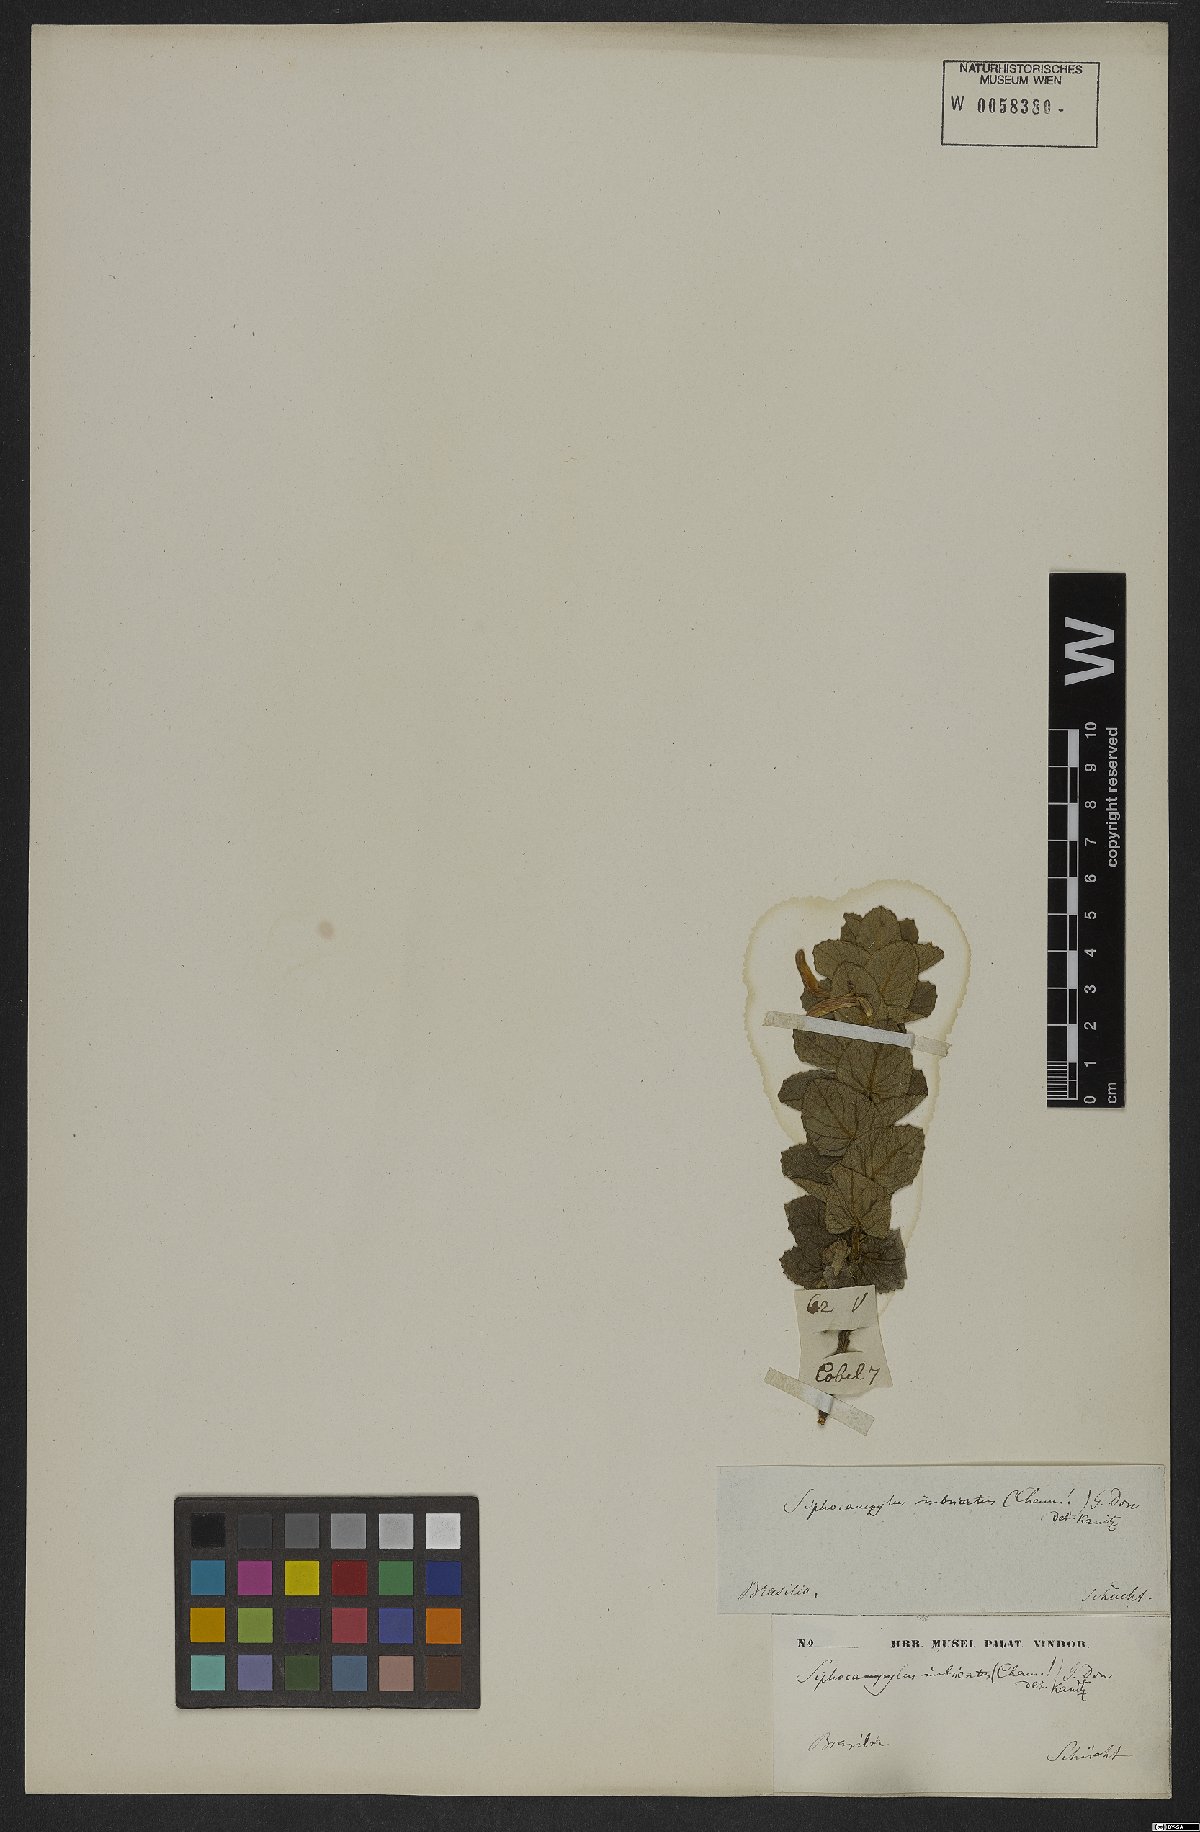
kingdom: Plantae
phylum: Tracheophyta
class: Magnoliopsida
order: Asterales
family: Campanulaceae
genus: Siphocampylus
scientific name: Siphocampylus imbricatus
